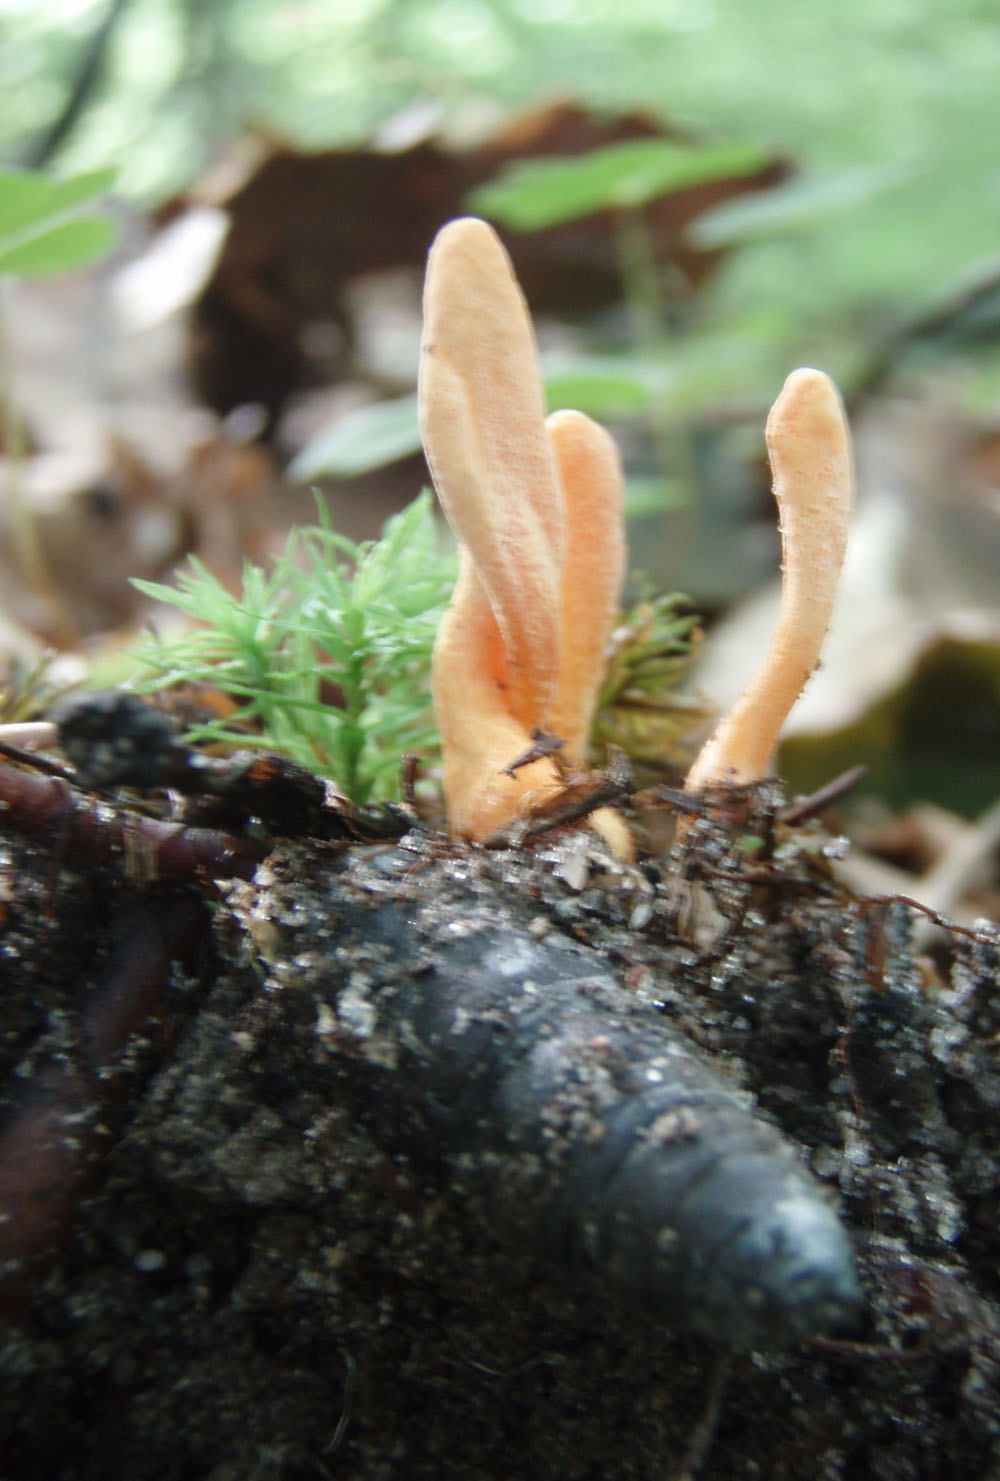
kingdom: Fungi
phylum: Ascomycota
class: Sordariomycetes
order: Hypocreales
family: Cordycipitaceae
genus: Cordyceps
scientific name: Cordyceps militaris
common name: puppe-snyltekølle
